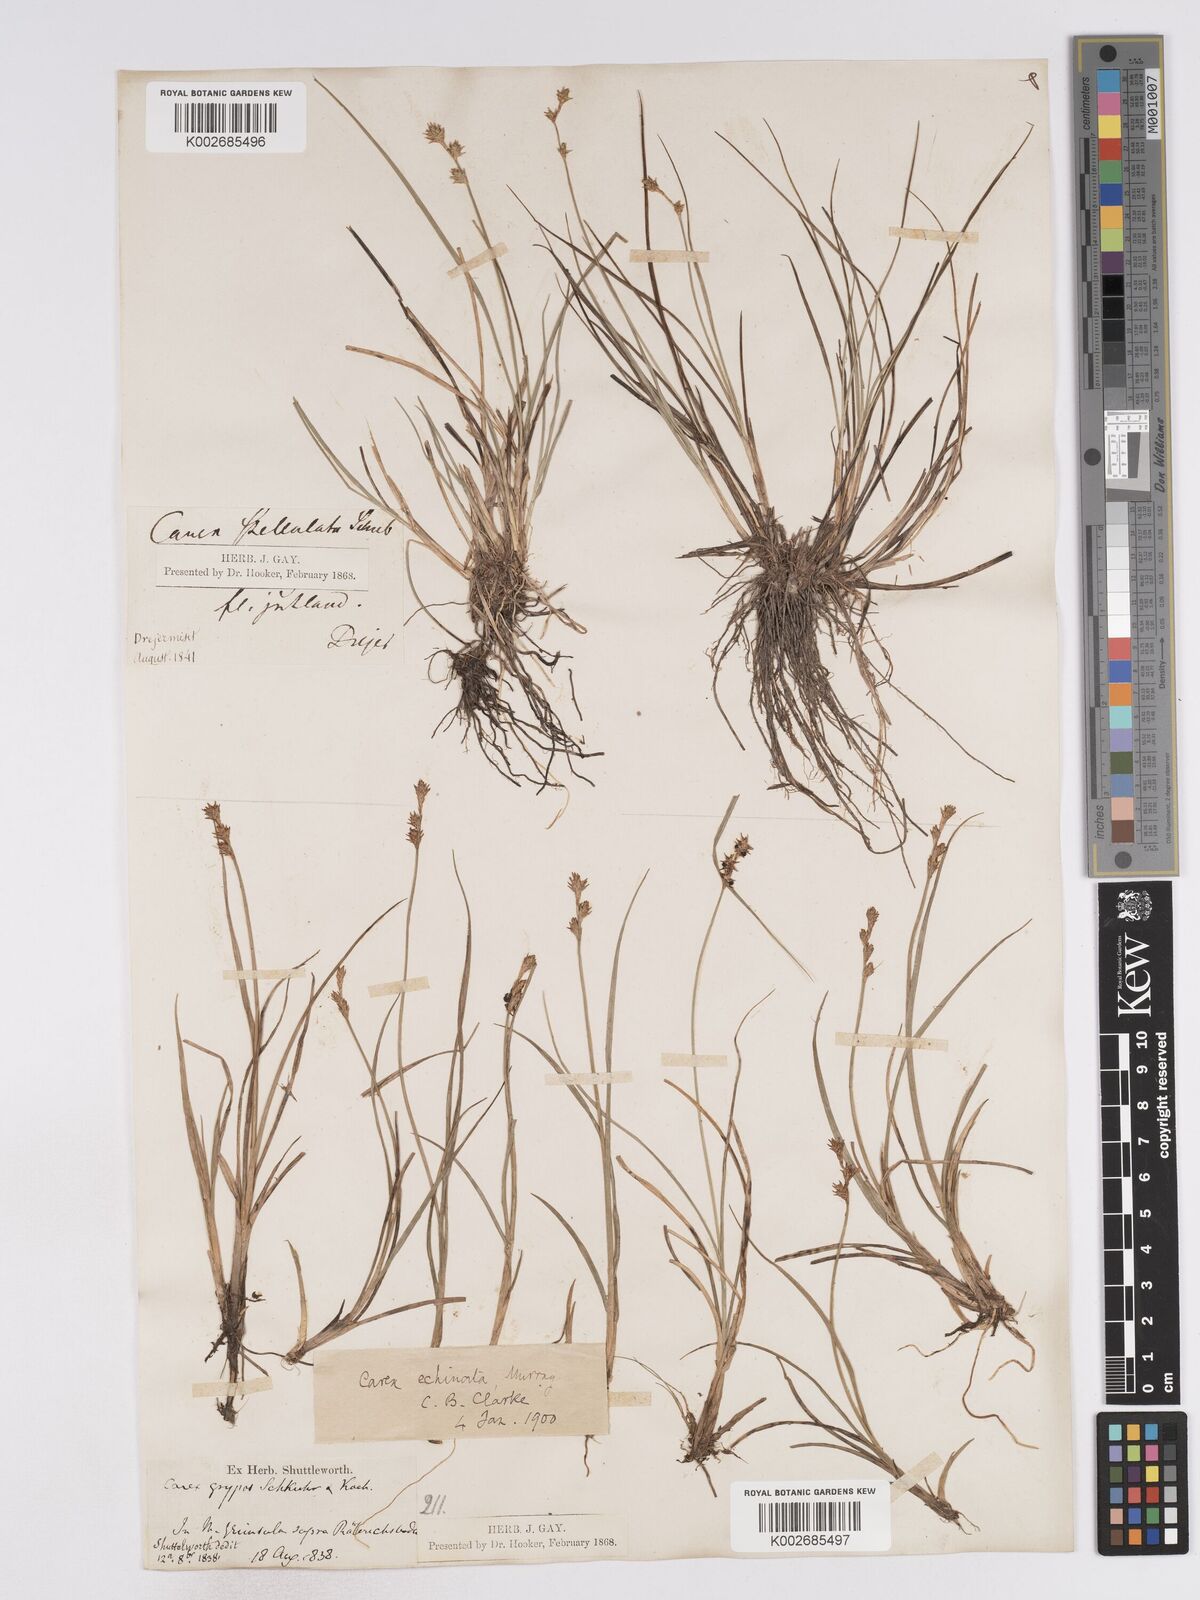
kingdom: Plantae
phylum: Tracheophyta
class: Liliopsida
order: Poales
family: Cyperaceae
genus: Carex
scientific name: Carex echinata
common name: Star sedge
